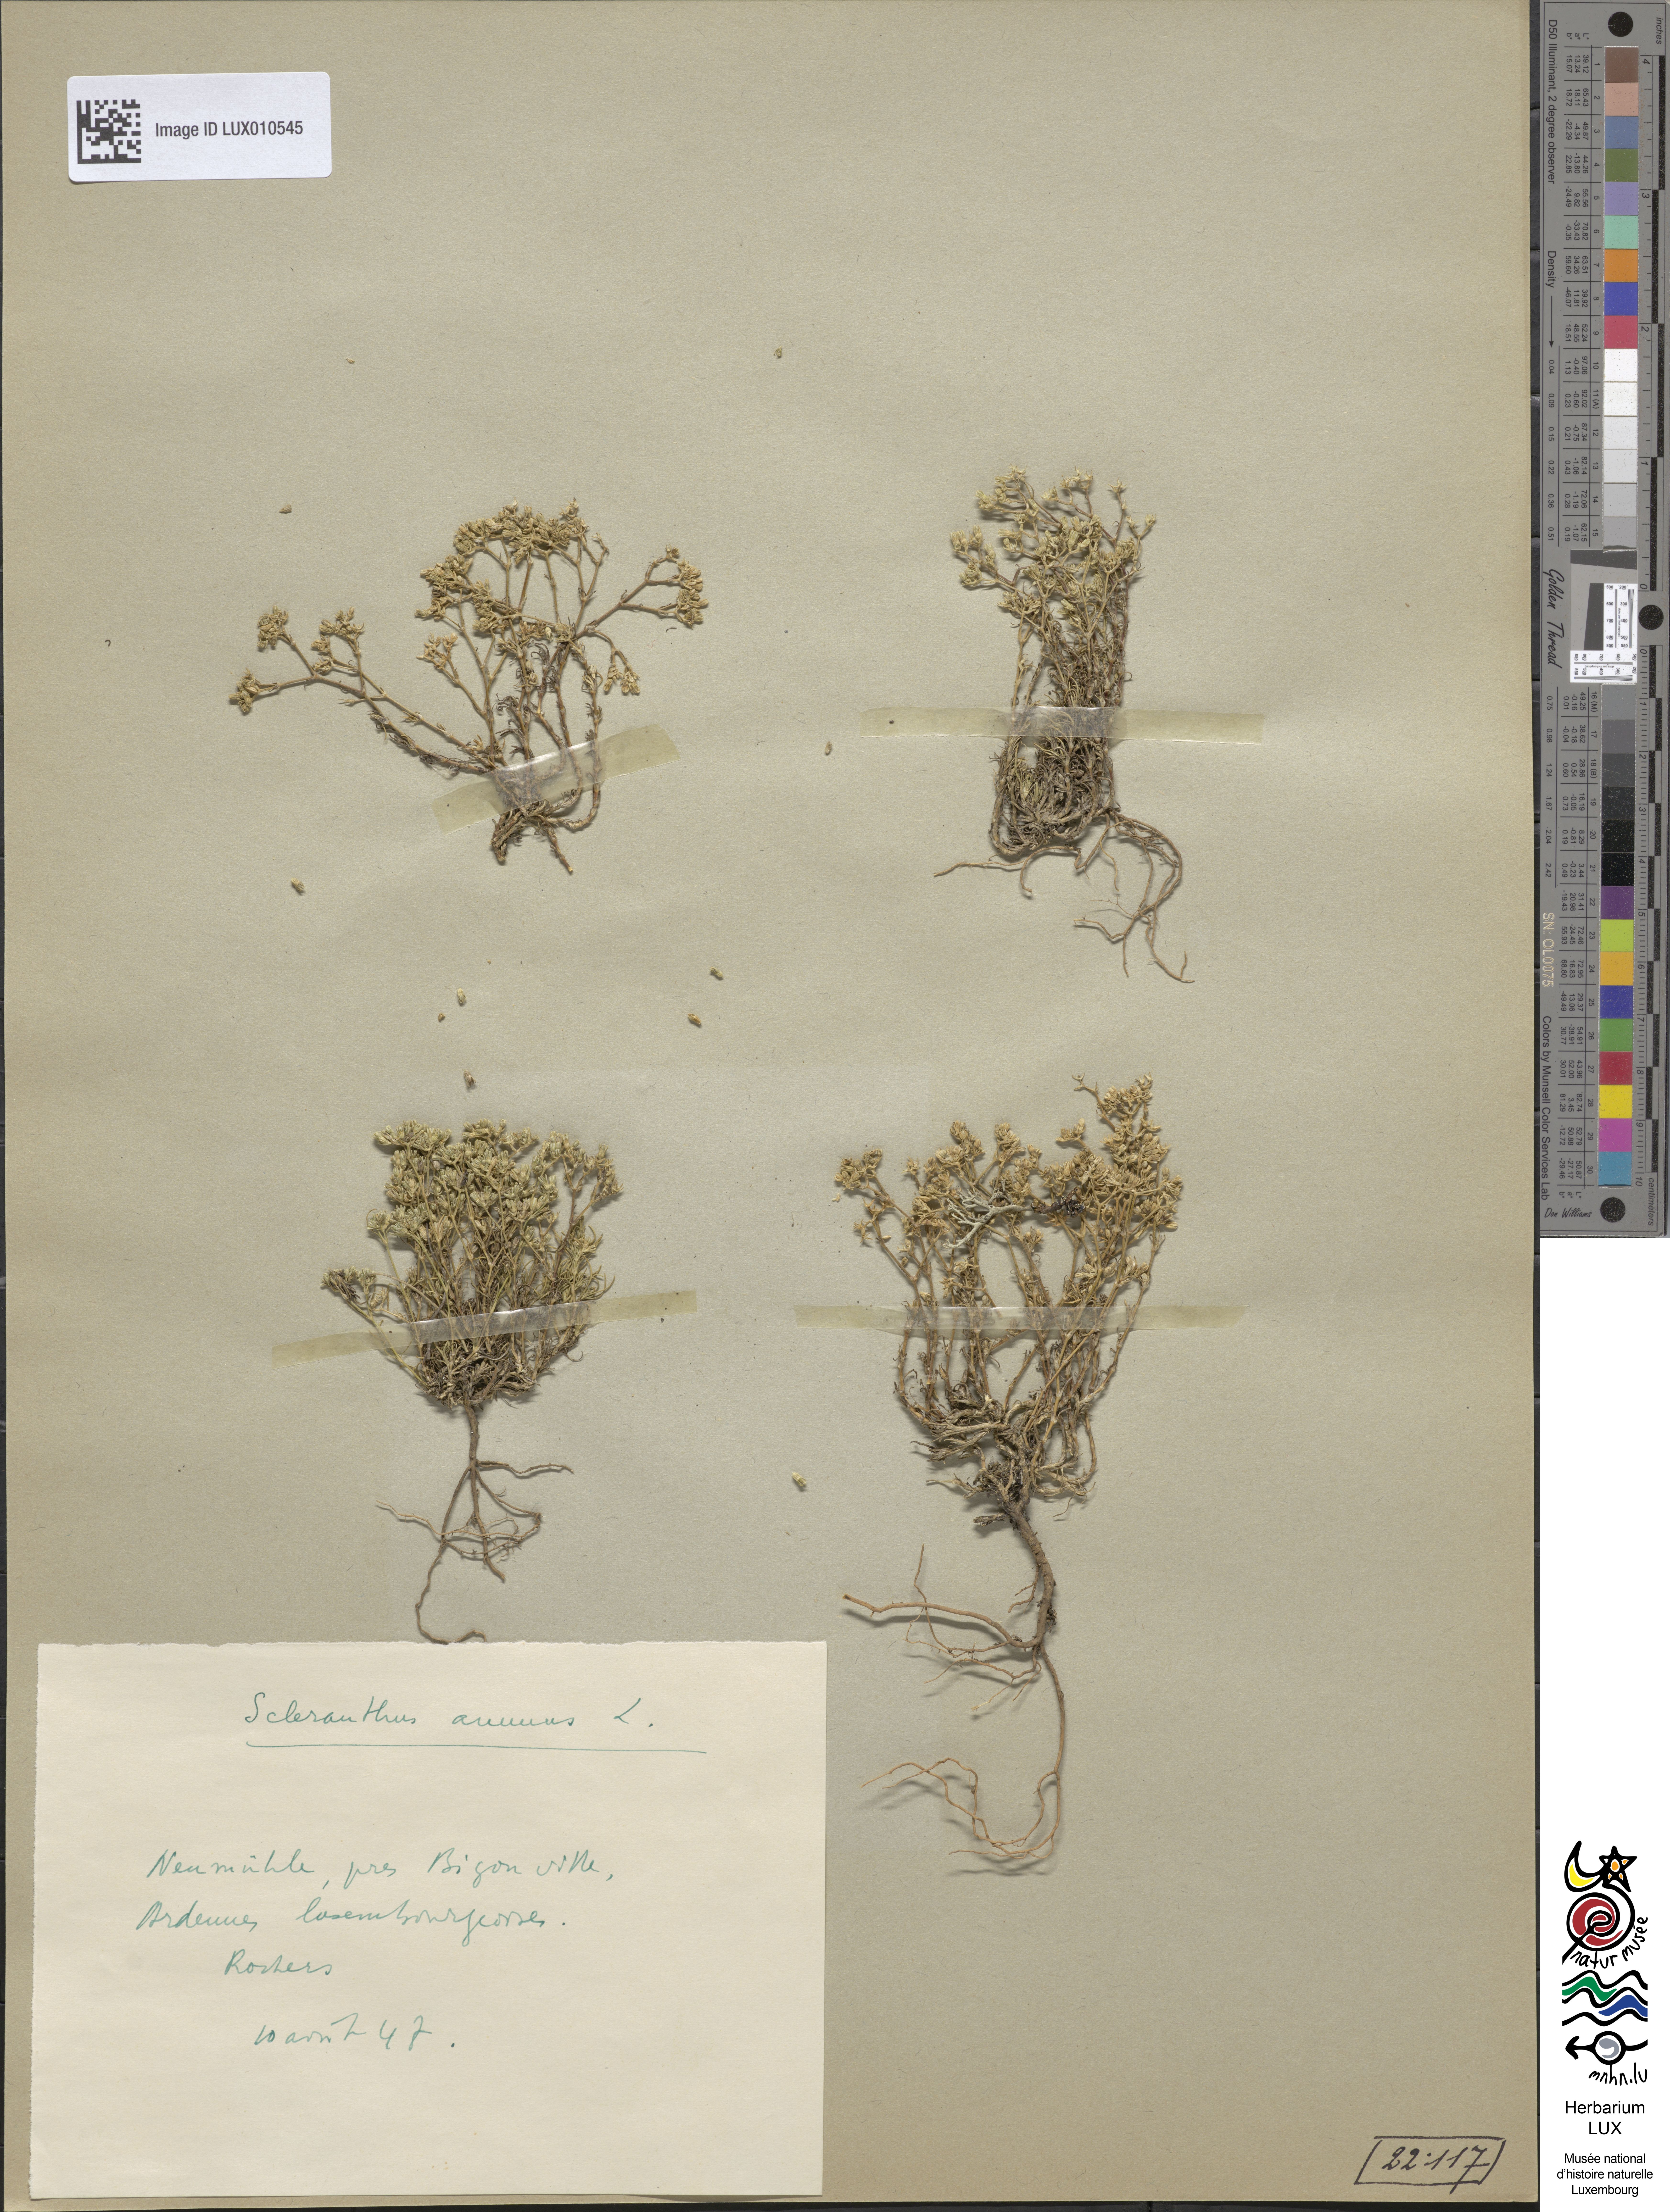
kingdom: Plantae
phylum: Tracheophyta
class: Magnoliopsida
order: Caryophyllales
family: Caryophyllaceae
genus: Scleranthus
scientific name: Scleranthus annuus
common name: Annual knawel
